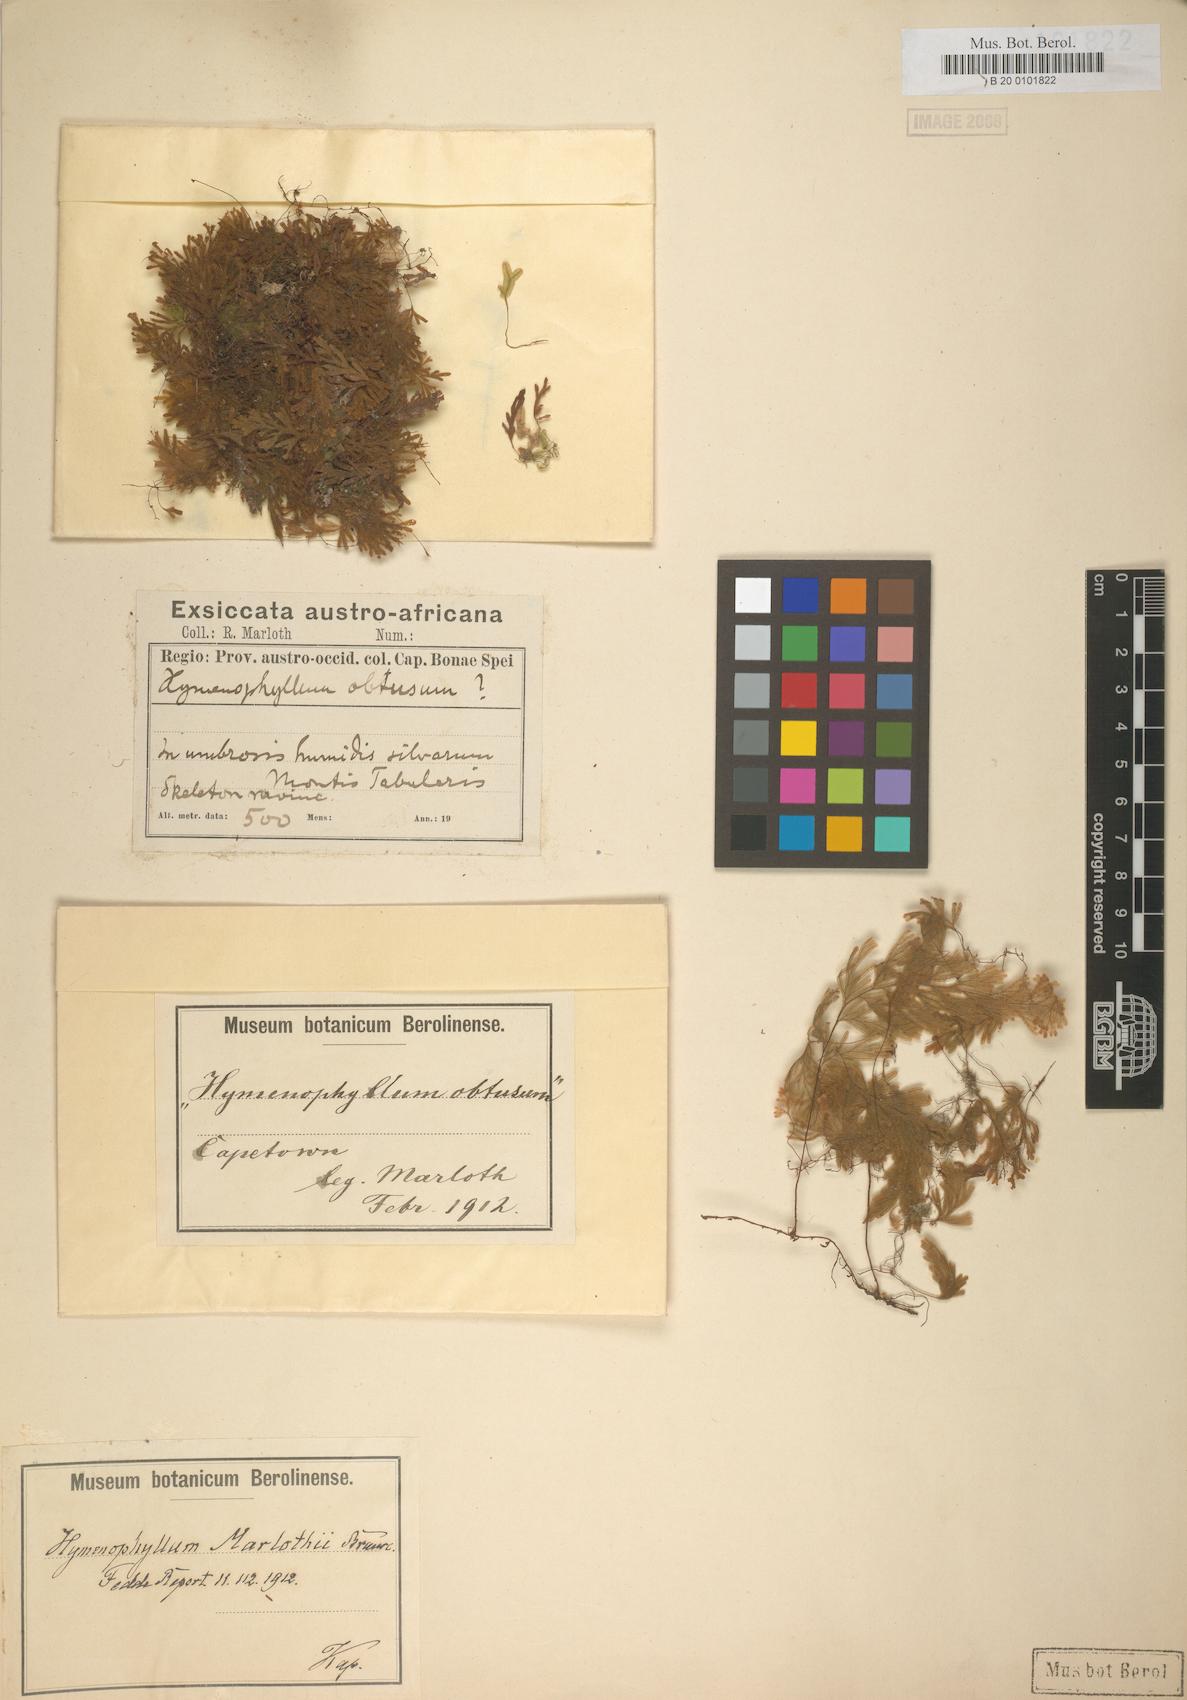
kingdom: Plantae
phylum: Tracheophyta
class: Polypodiopsida
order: Hymenophyllales
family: Hymenophyllaceae
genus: Hymenophyllum
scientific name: Hymenophyllum aeruginosum
